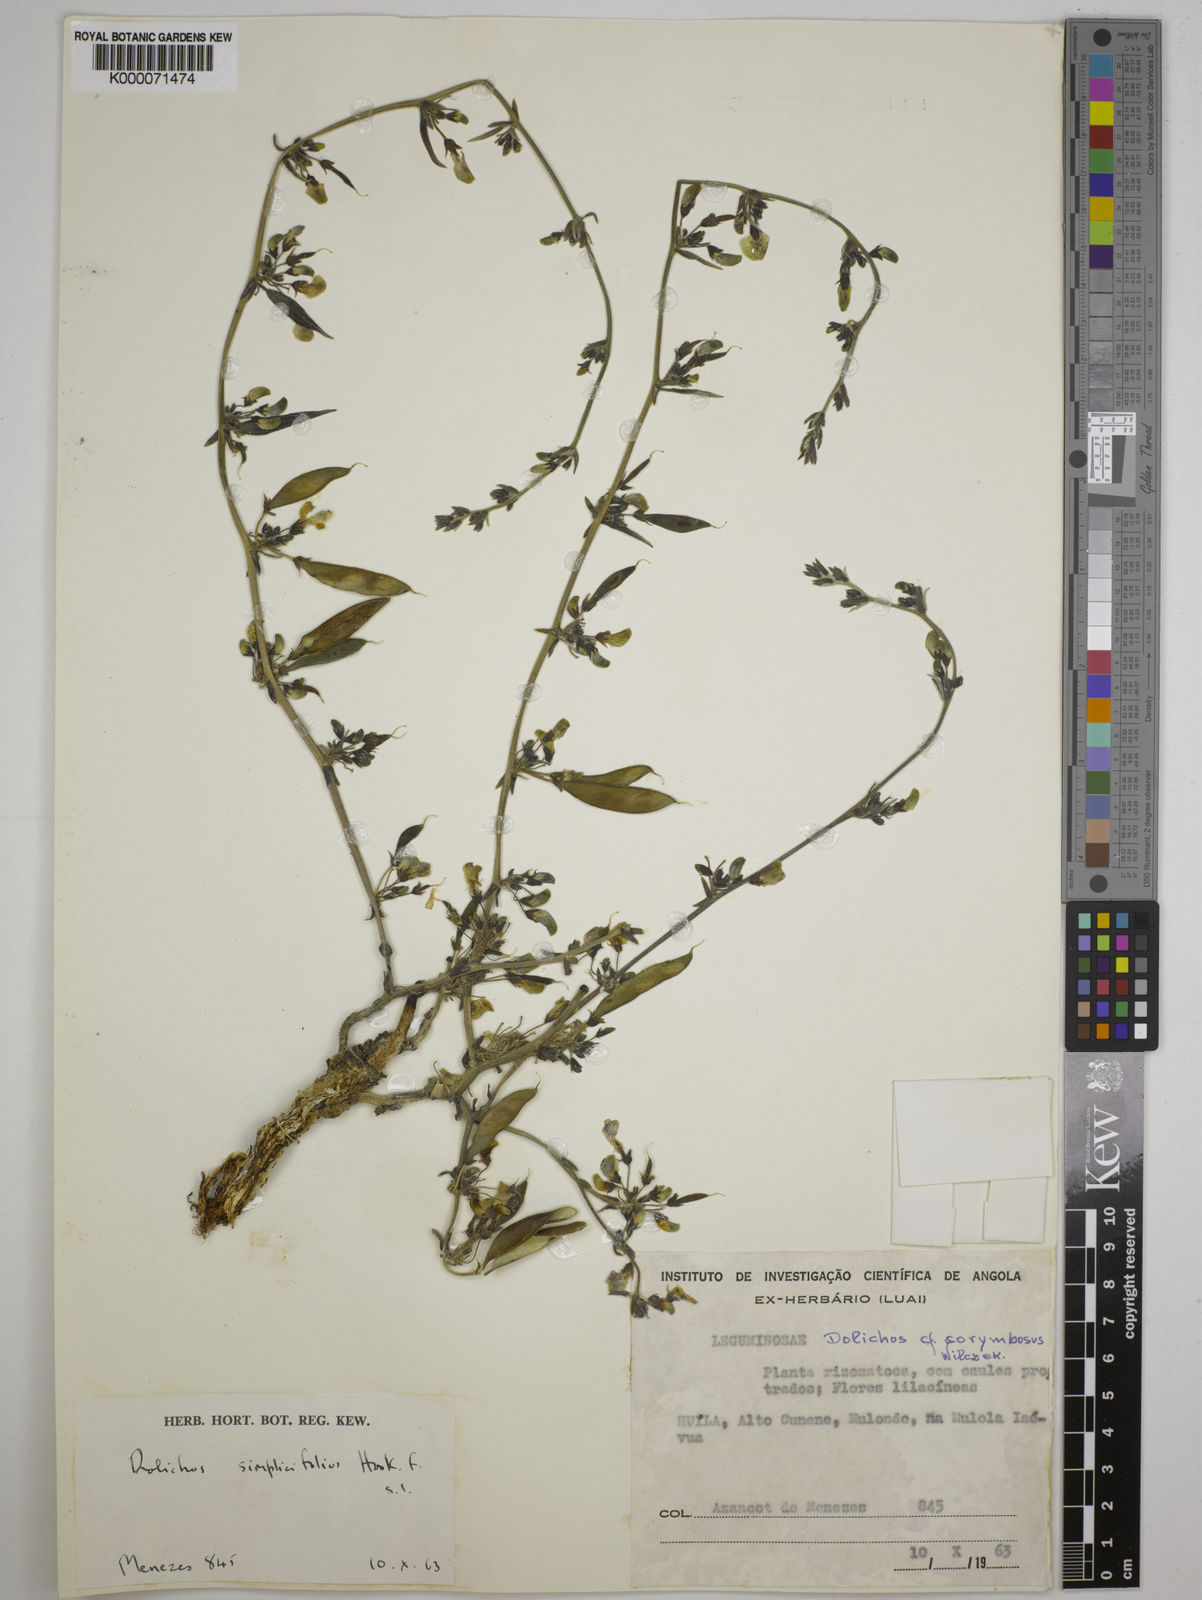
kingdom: Plantae
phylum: Tracheophyta
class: Magnoliopsida
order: Fabales
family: Fabaceae
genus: Dolichos
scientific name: Dolichos simplicifolius
